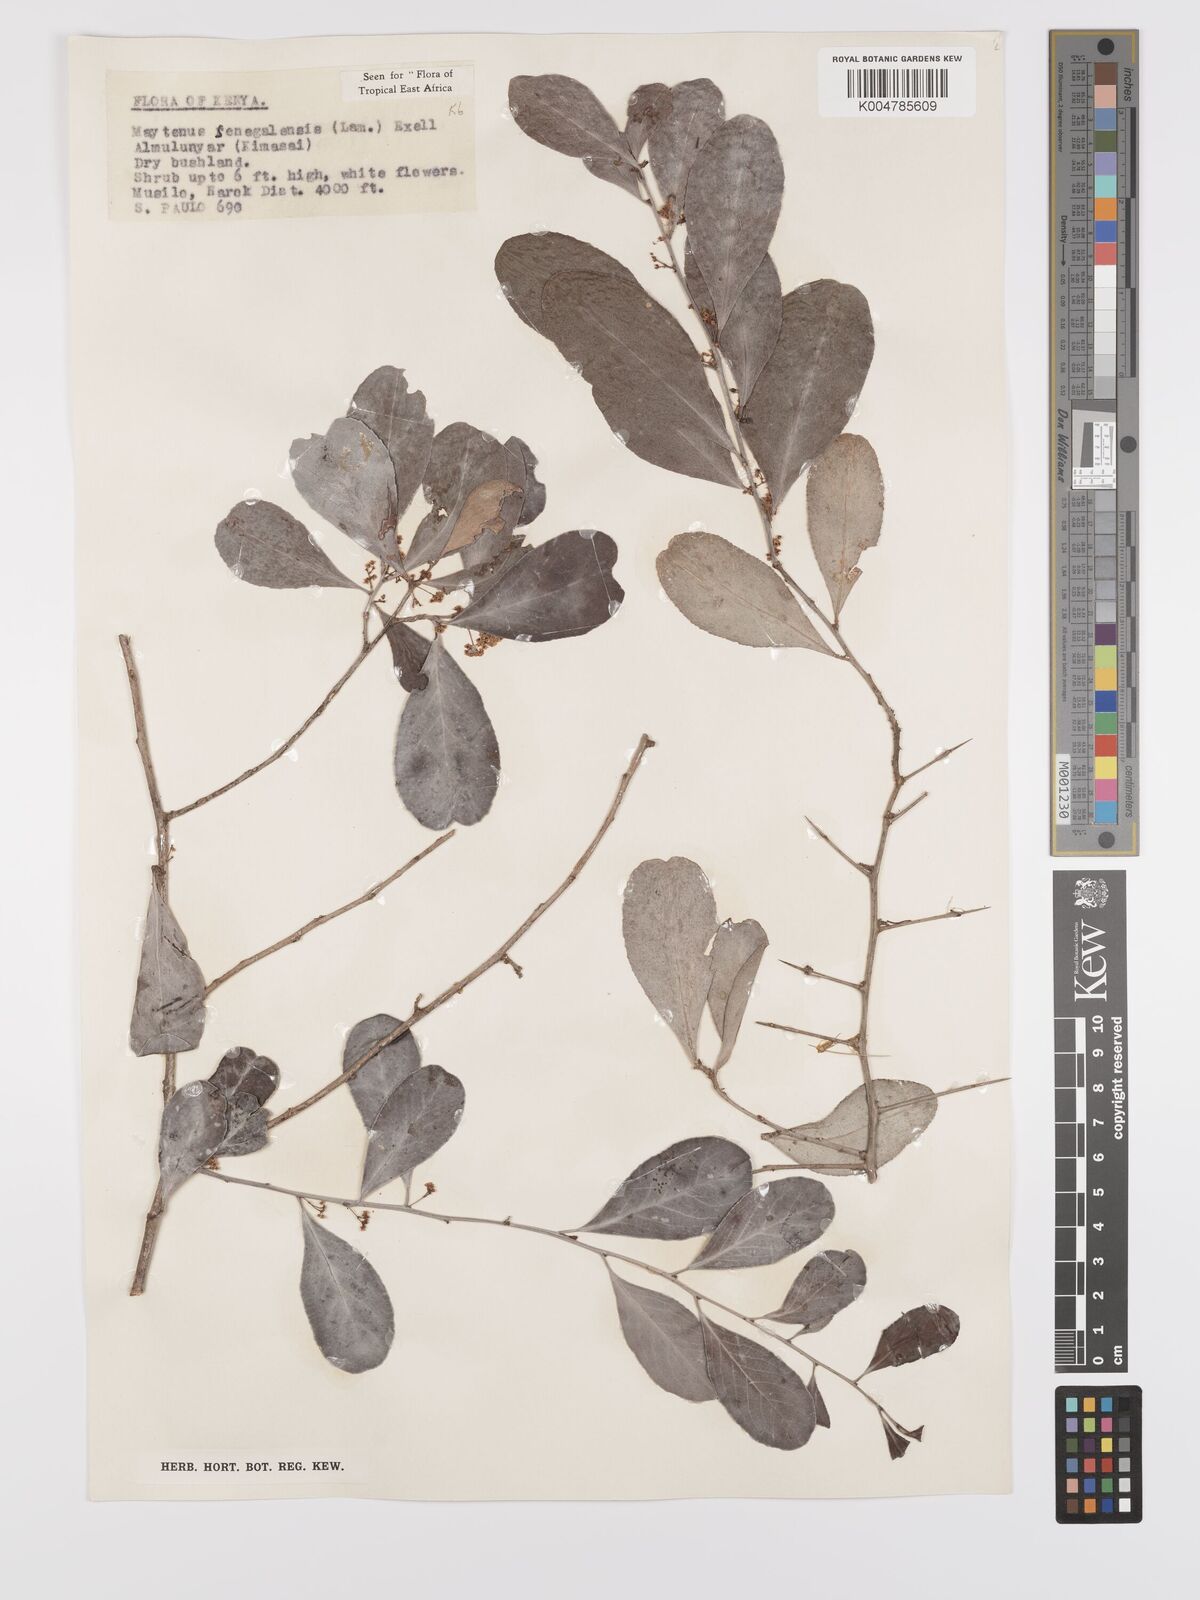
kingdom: Plantae
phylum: Tracheophyta
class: Magnoliopsida
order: Celastrales
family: Celastraceae
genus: Gymnosporia
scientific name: Gymnosporia senegalensis
